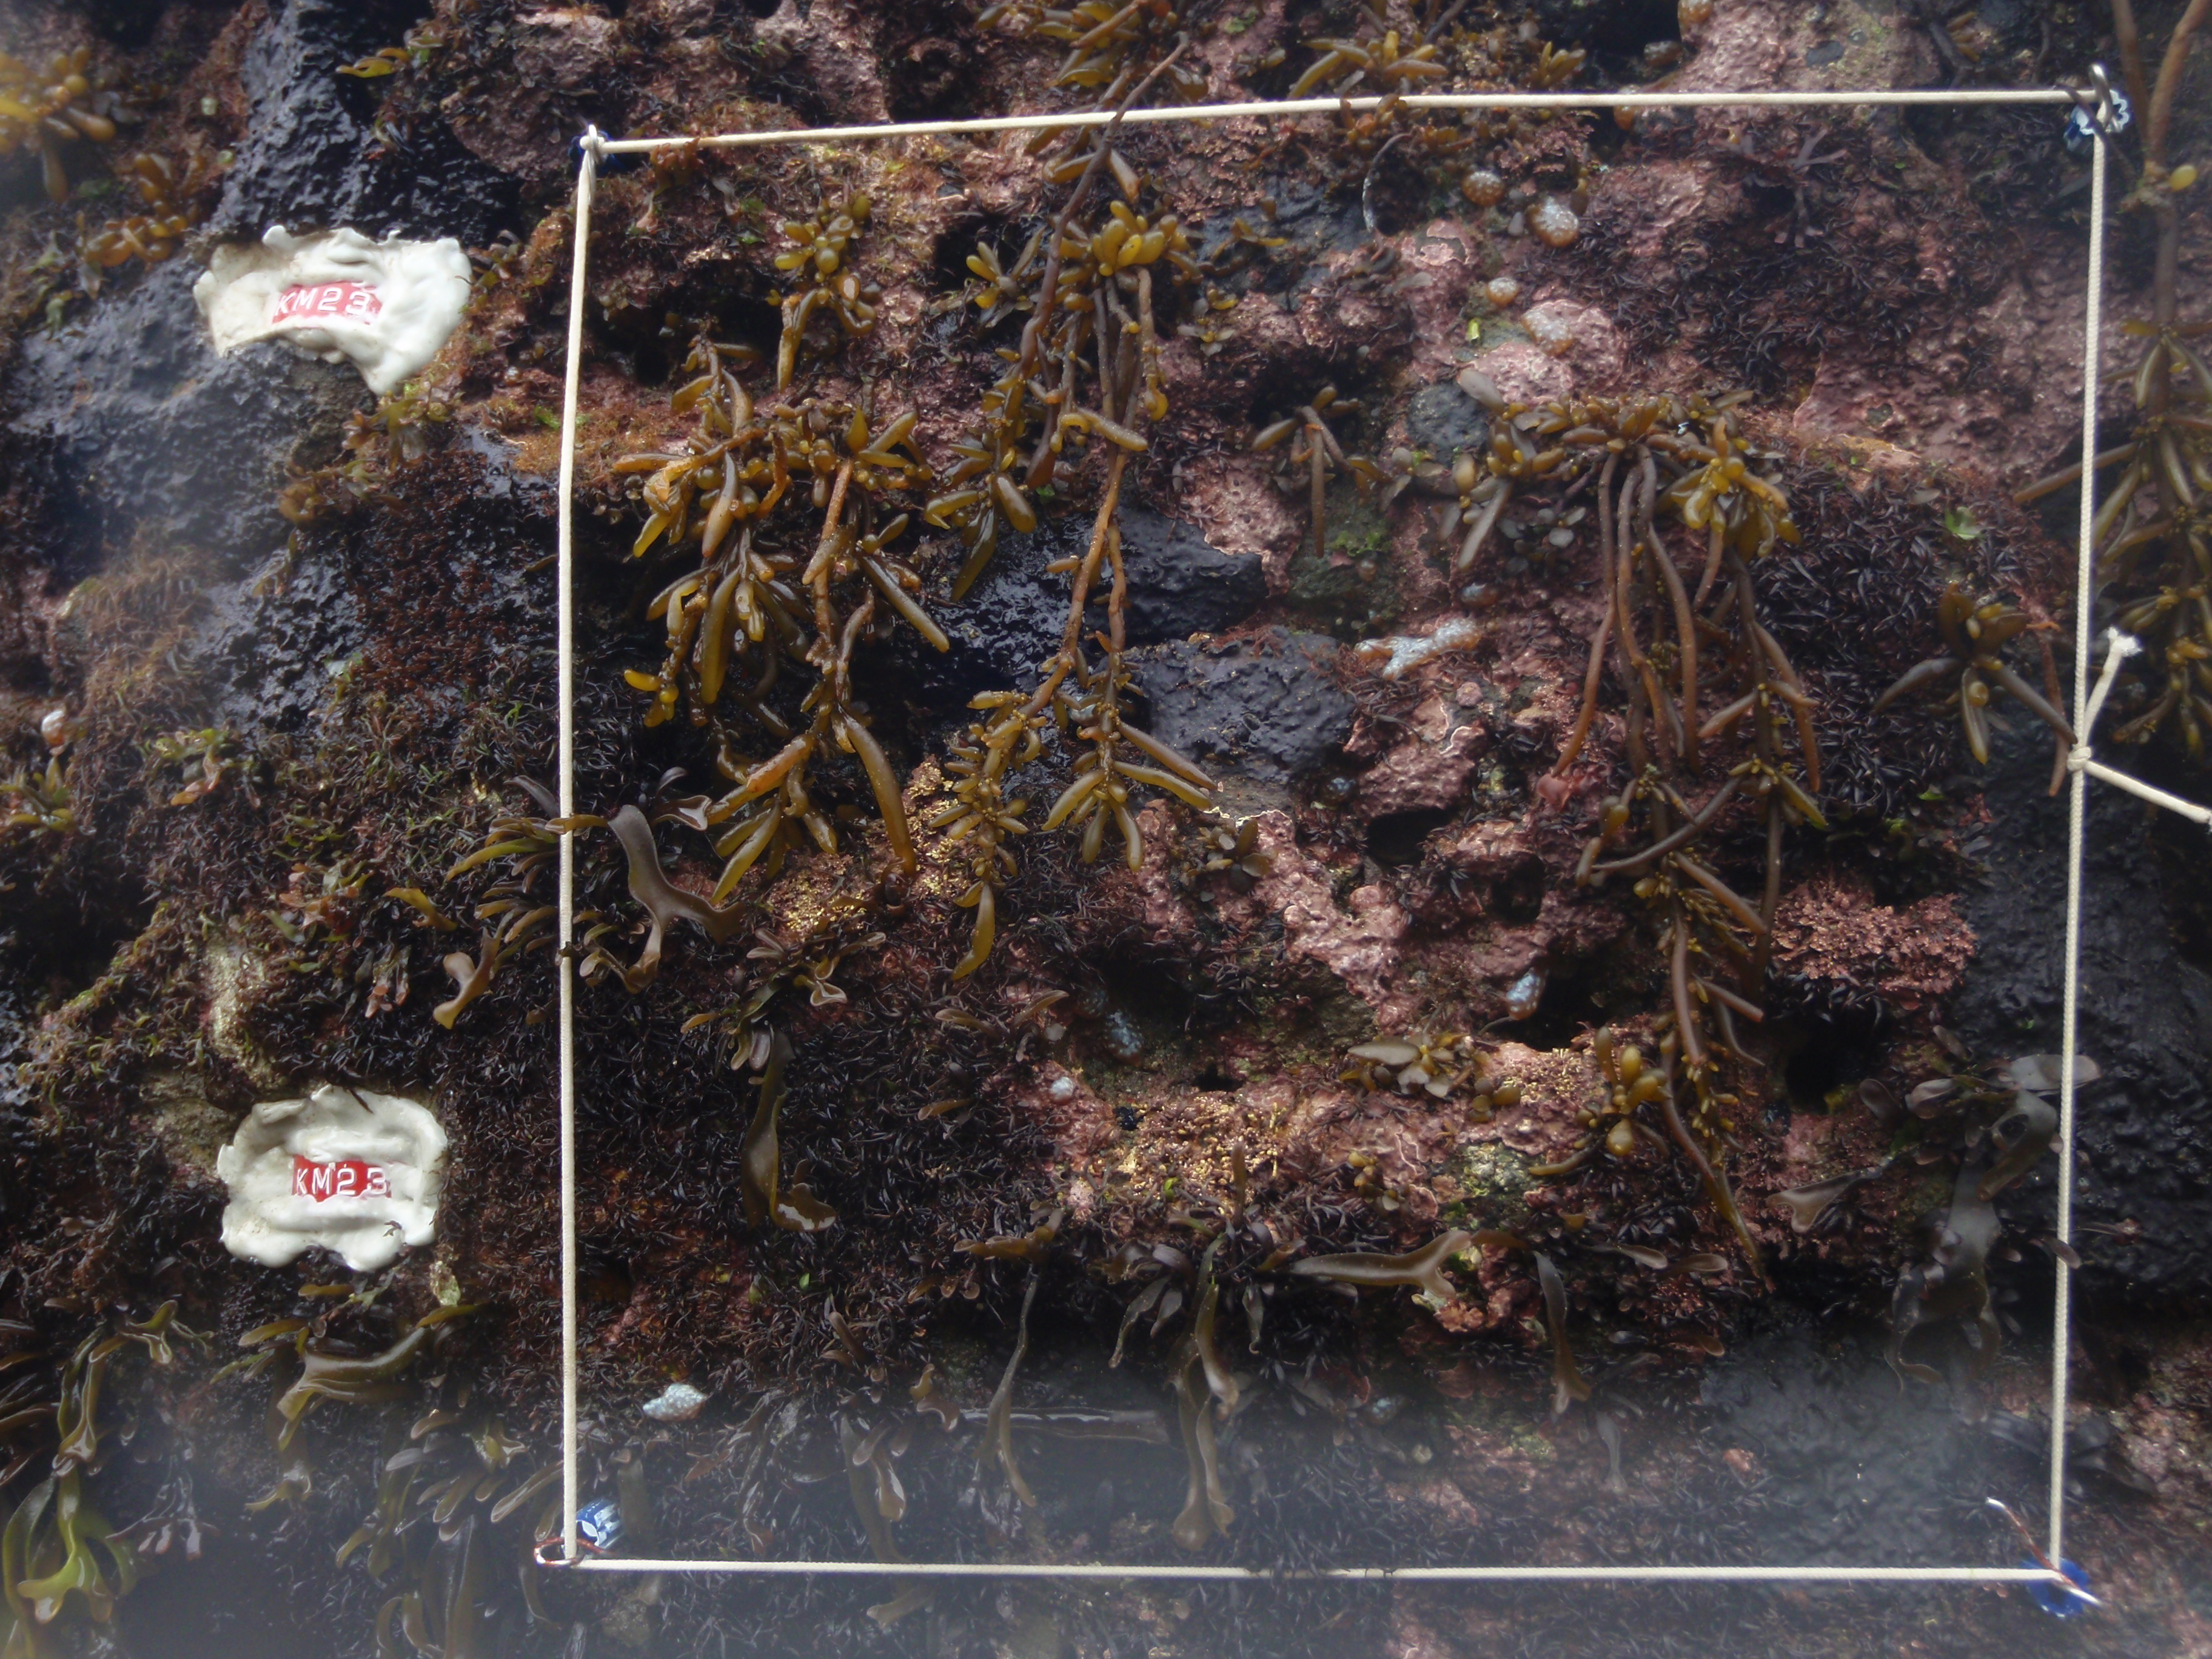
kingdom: Chromista
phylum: Ochrophyta
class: Phaeophyceae
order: Fucales
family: Sargassaceae
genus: Sargassum
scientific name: Sargassum fusiforme
